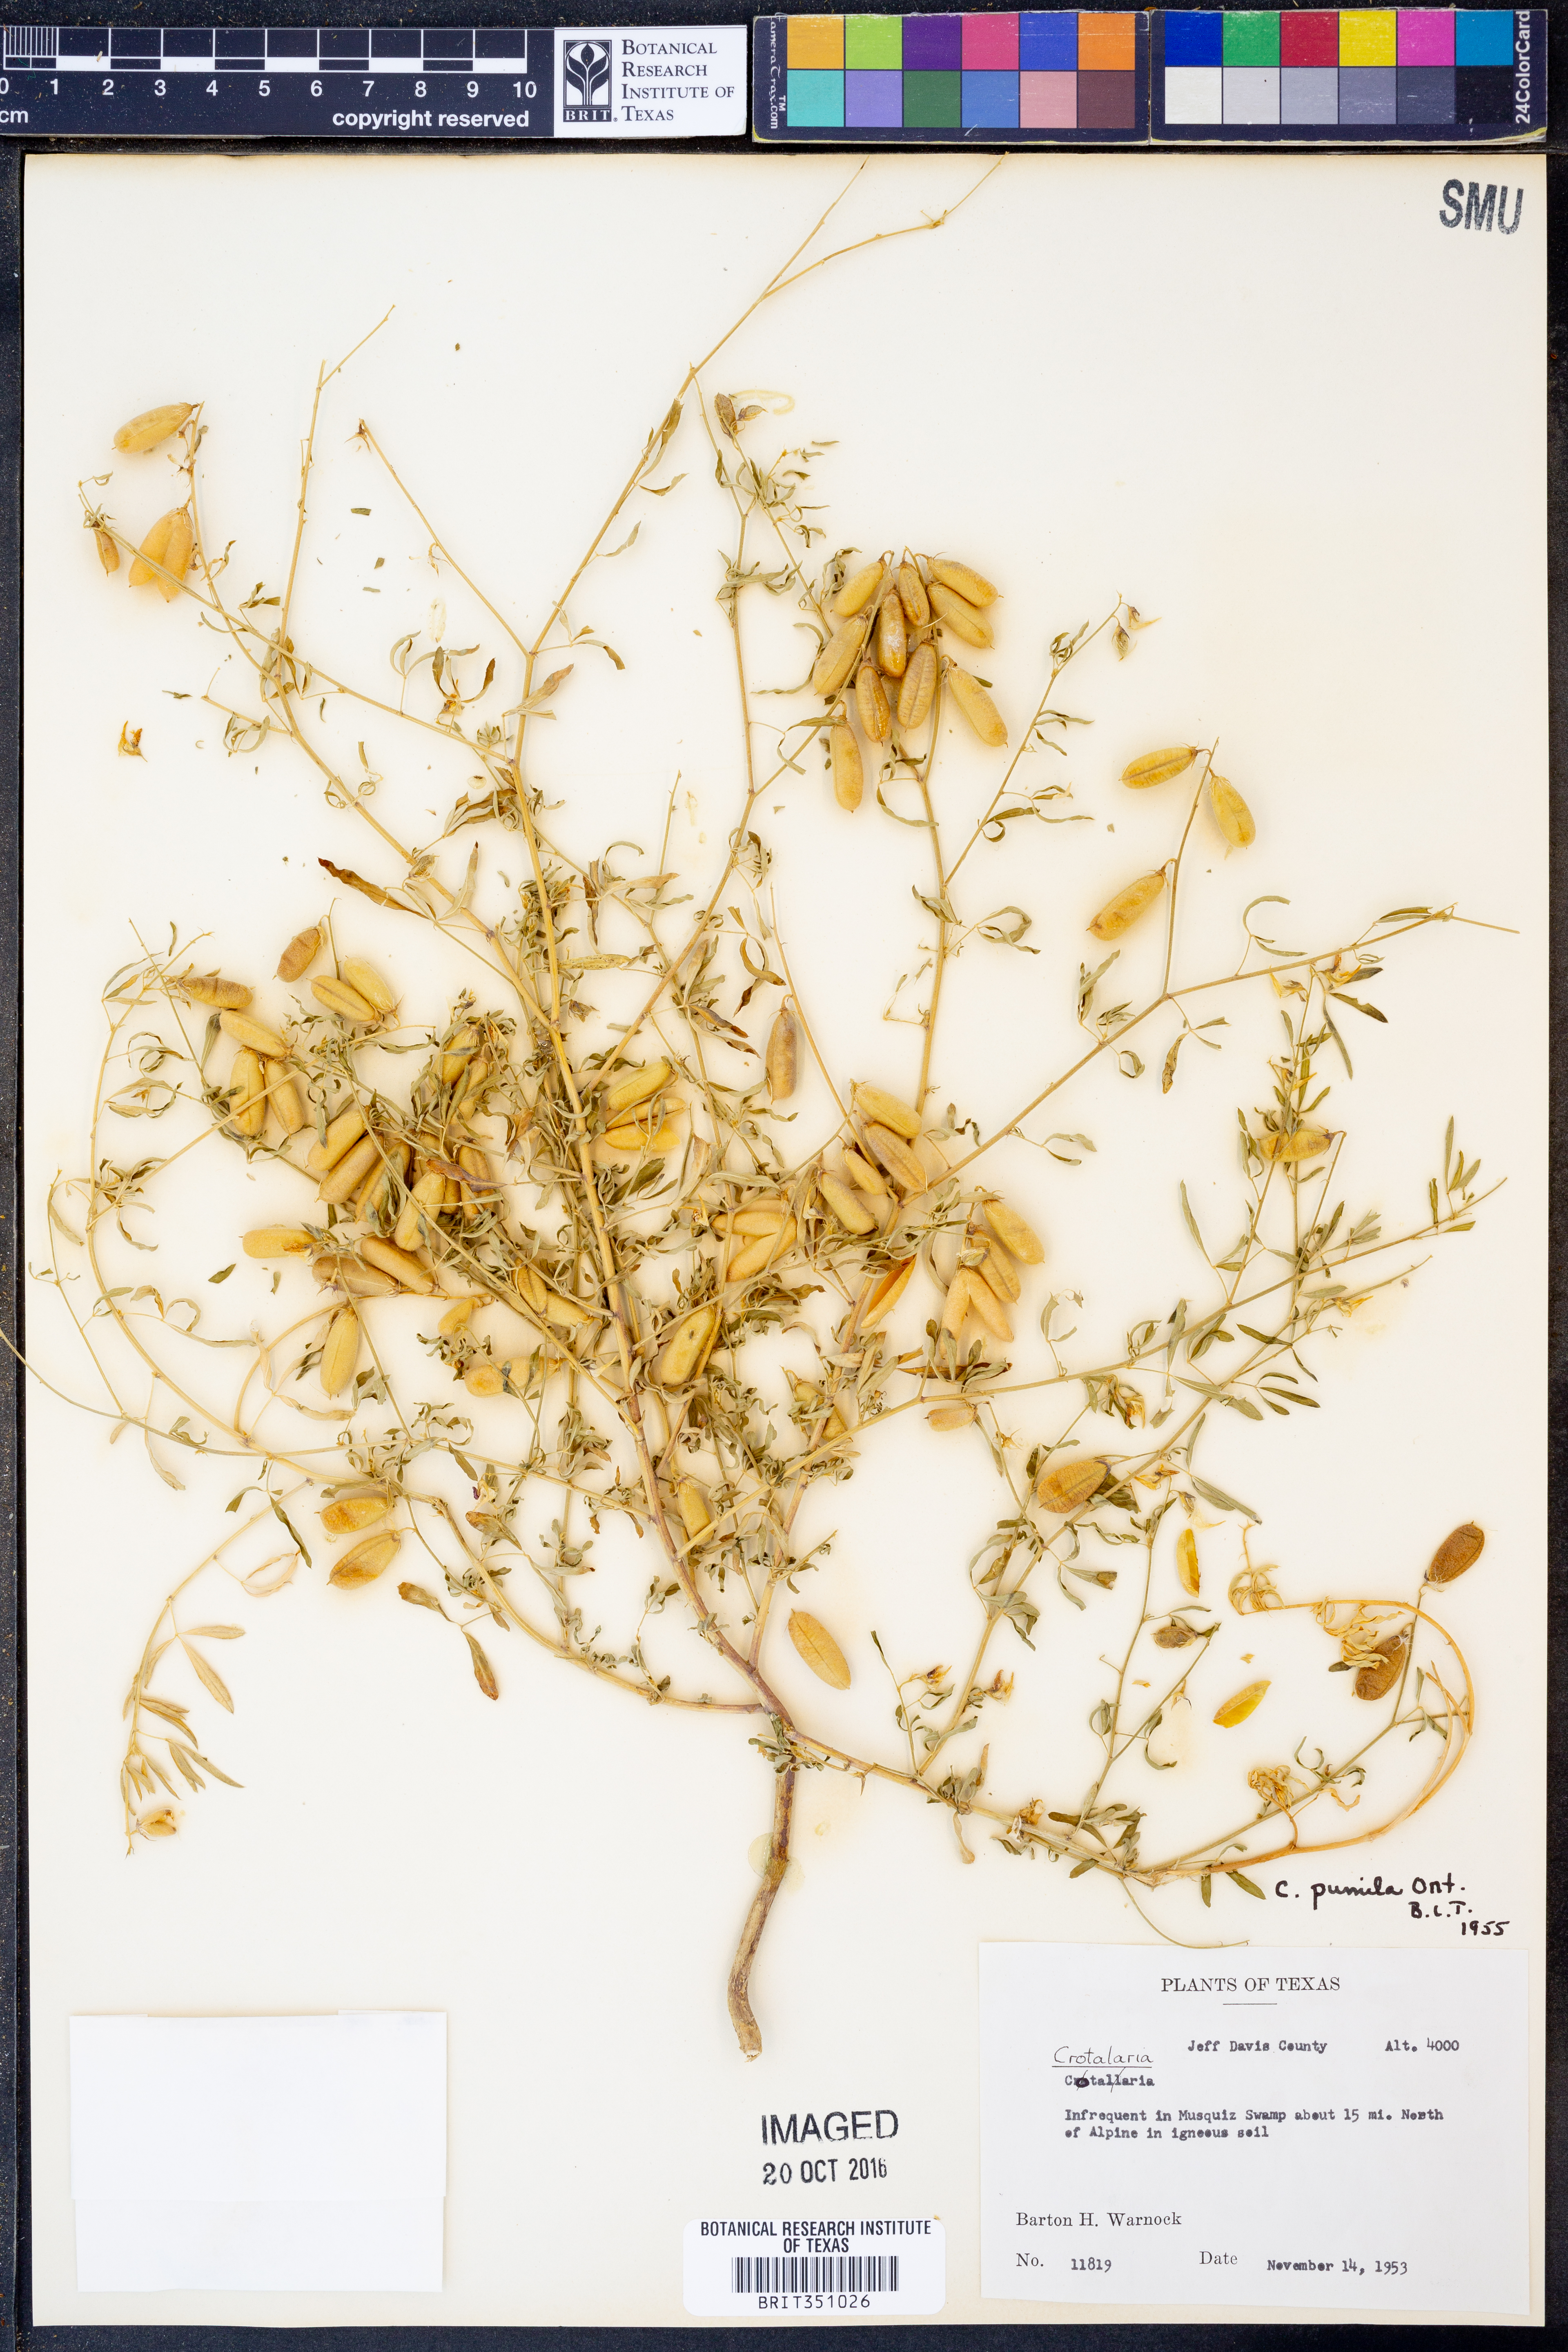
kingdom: Plantae
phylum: Tracheophyta
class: Magnoliopsida
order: Fabales
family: Fabaceae
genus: Crotalaria
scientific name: Crotalaria pumila
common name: Low rattlebox
